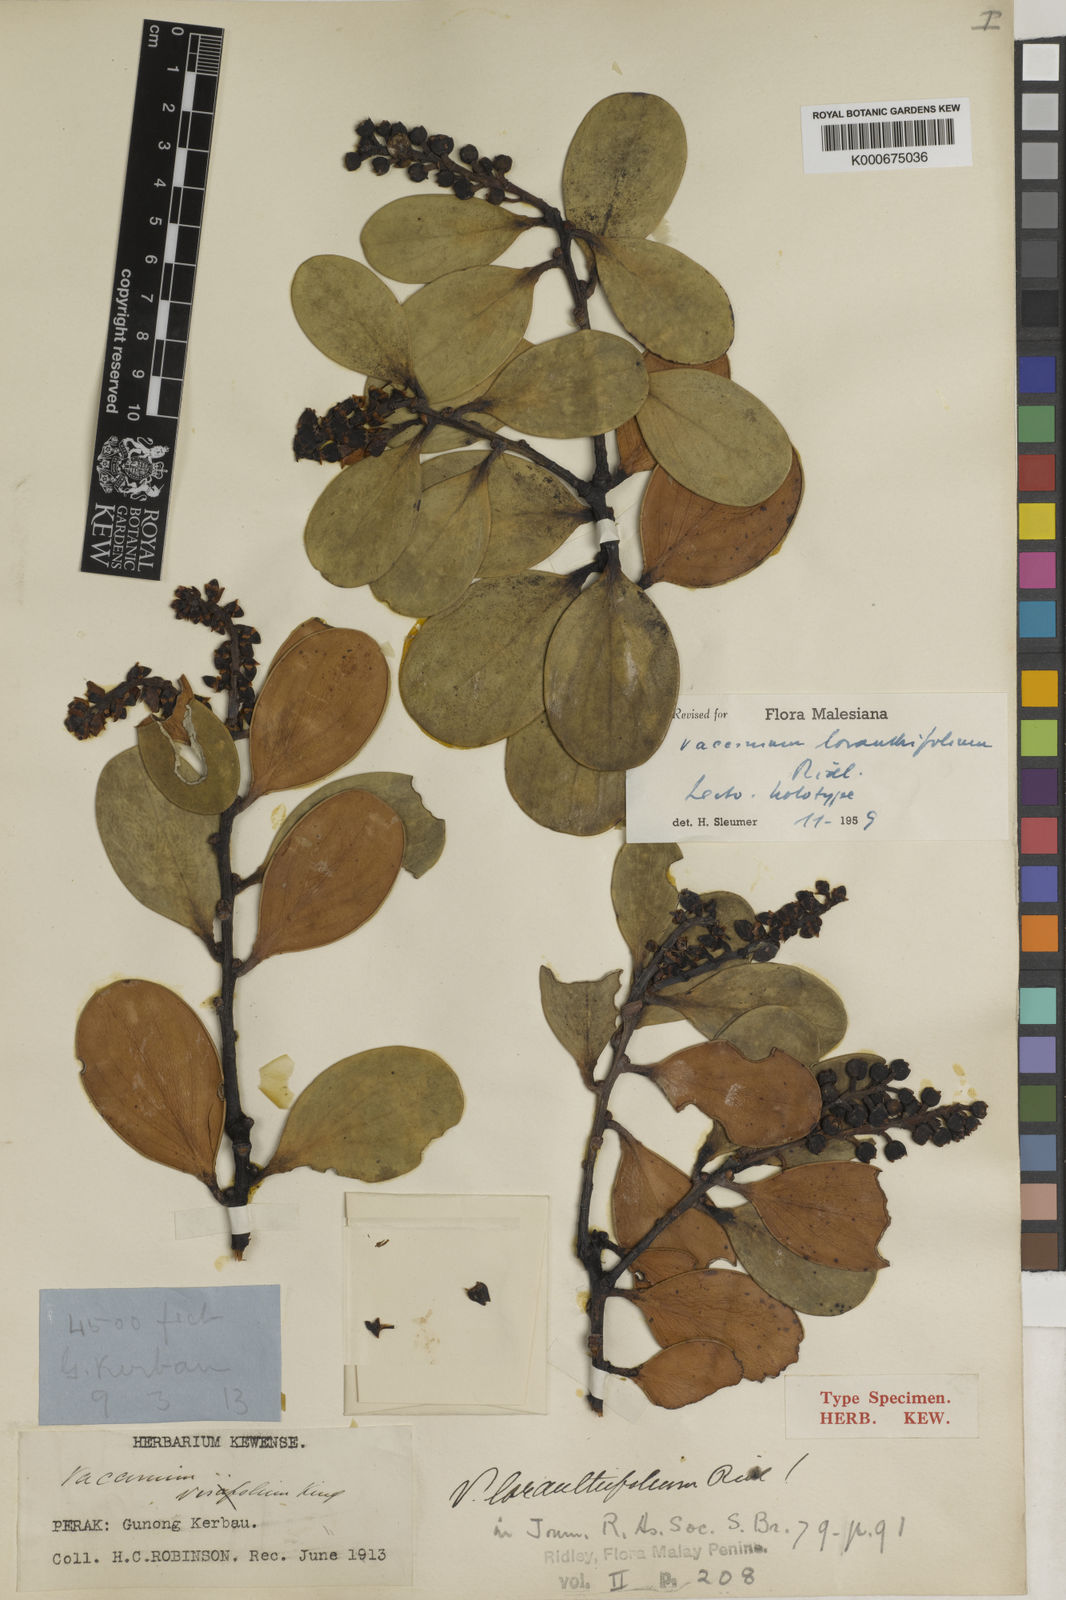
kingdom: Plantae
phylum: Tracheophyta
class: Magnoliopsida
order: Ericales
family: Ericaceae
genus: Vaccinium
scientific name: Vaccinium loranthifolium
